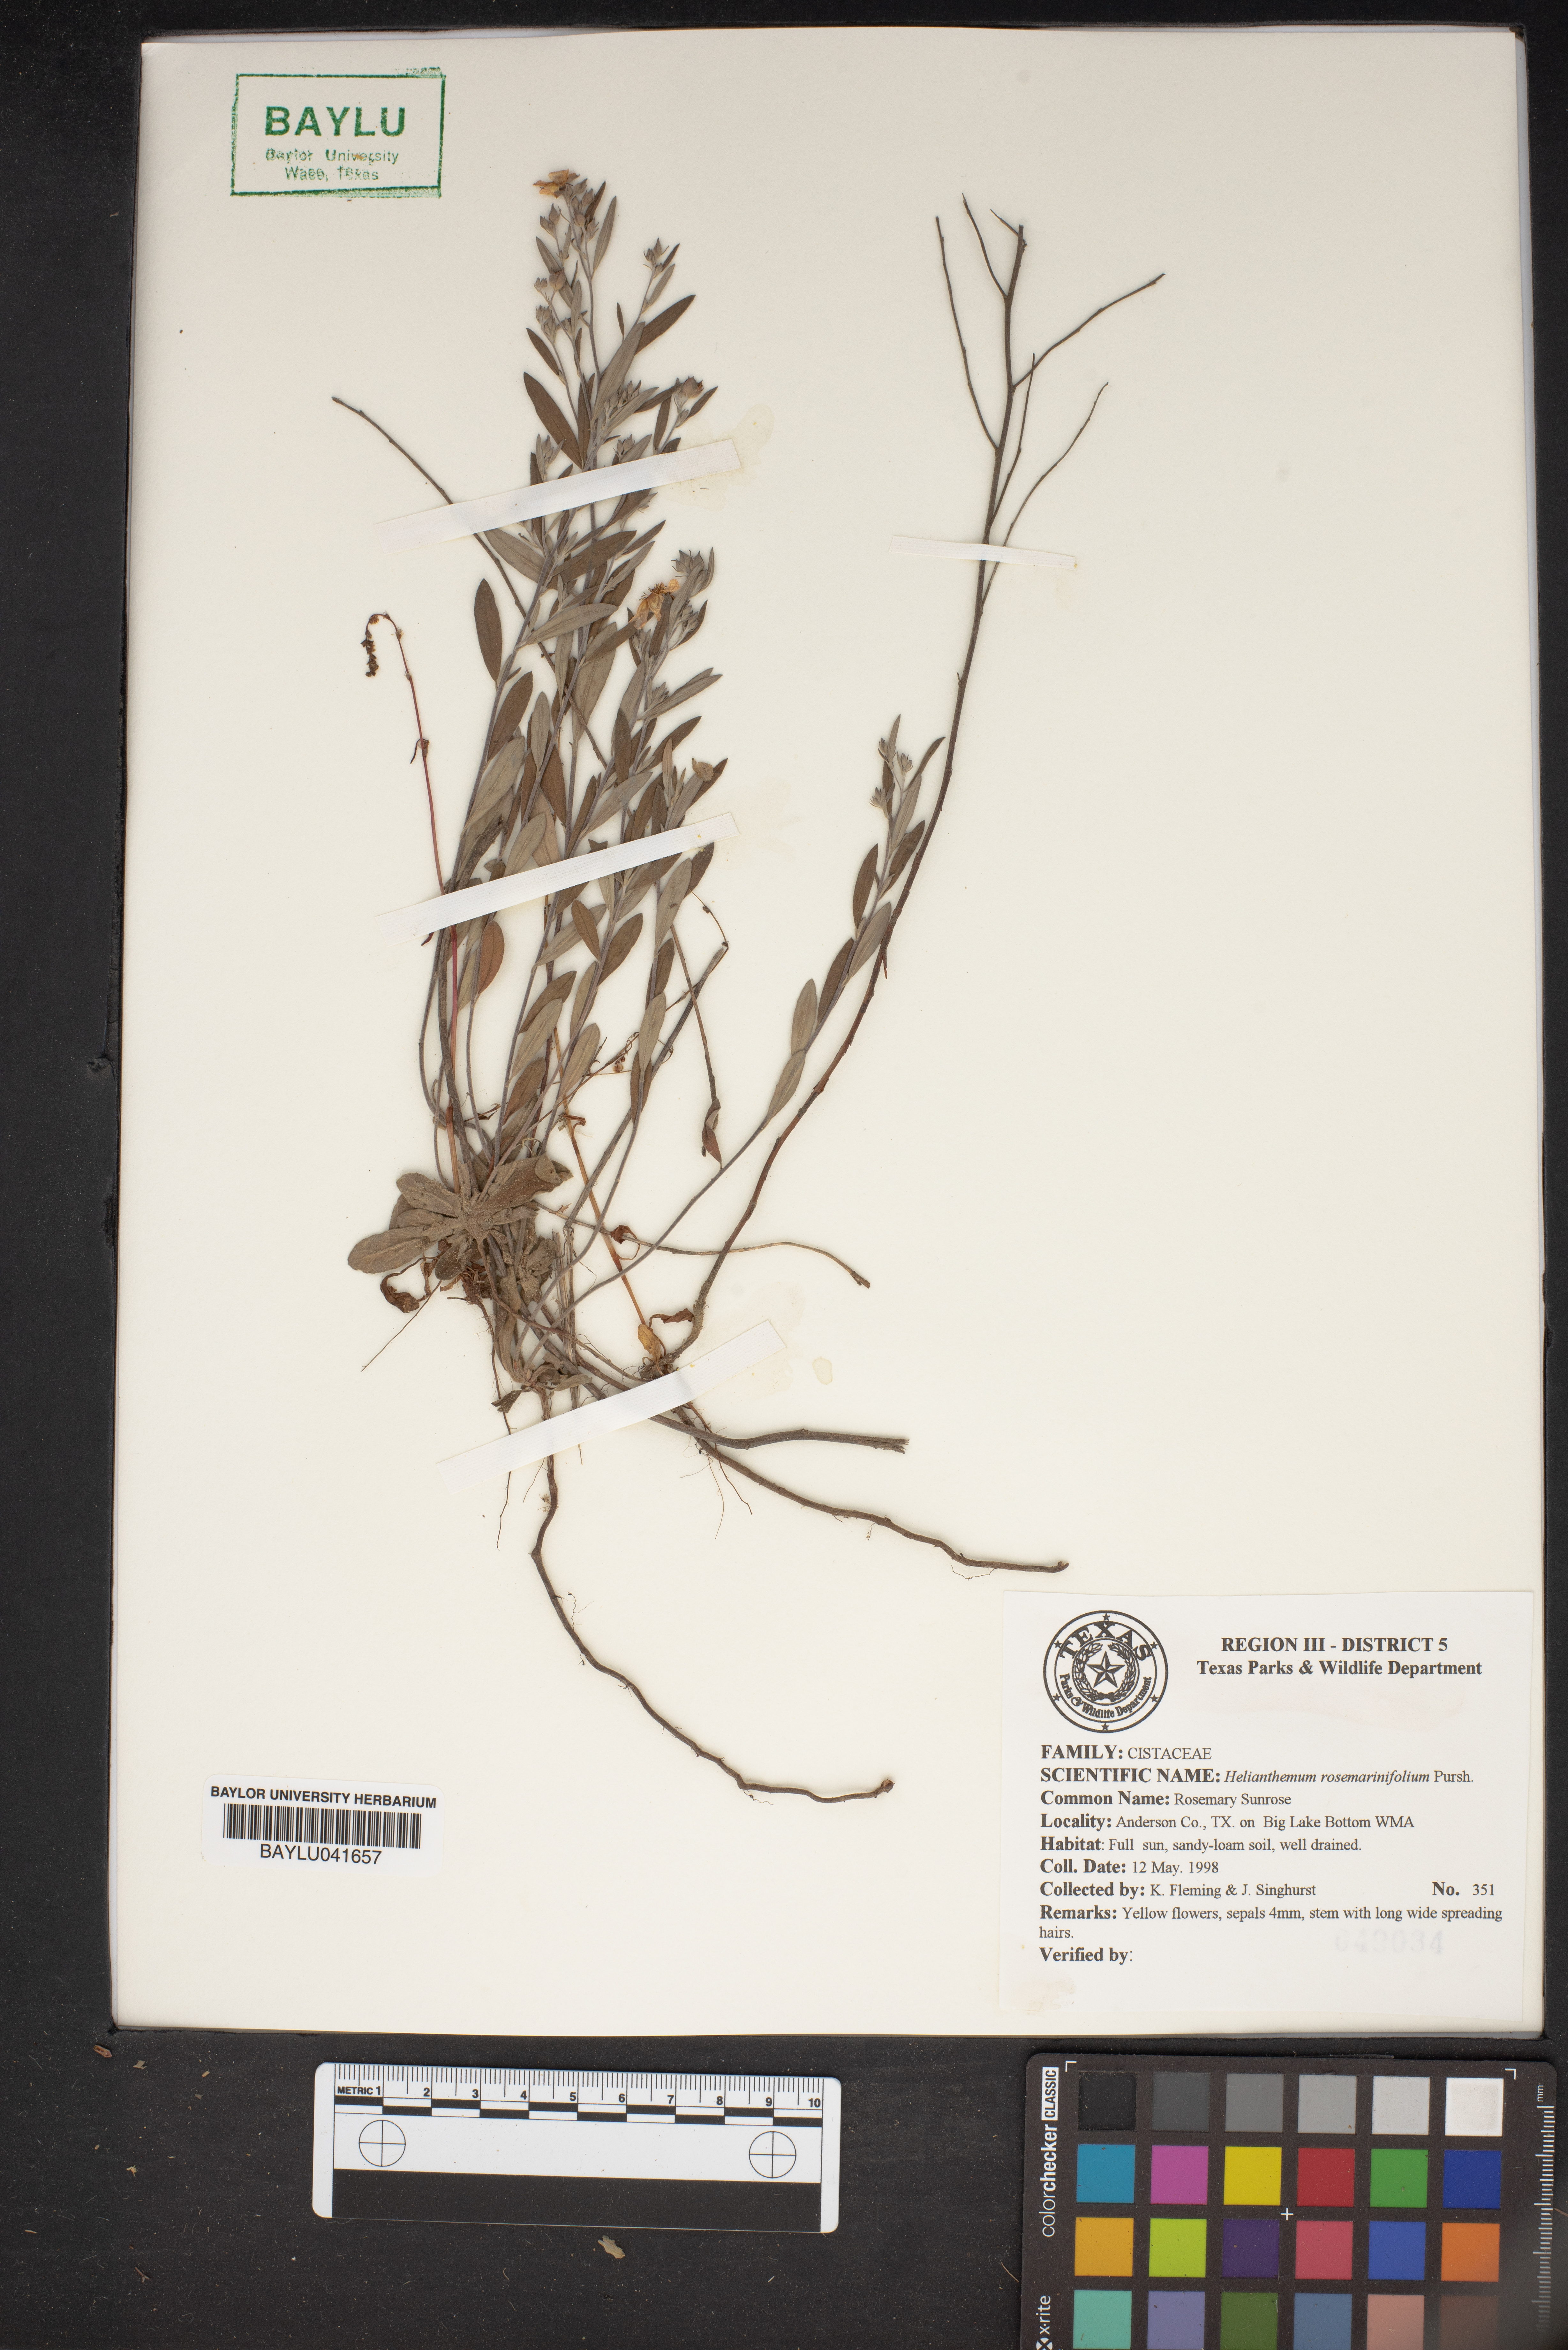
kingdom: Plantae
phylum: Tracheophyta
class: Magnoliopsida
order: Malvales
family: Cistaceae
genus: Crocanthemum
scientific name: Crocanthemum rosmarinifolium
